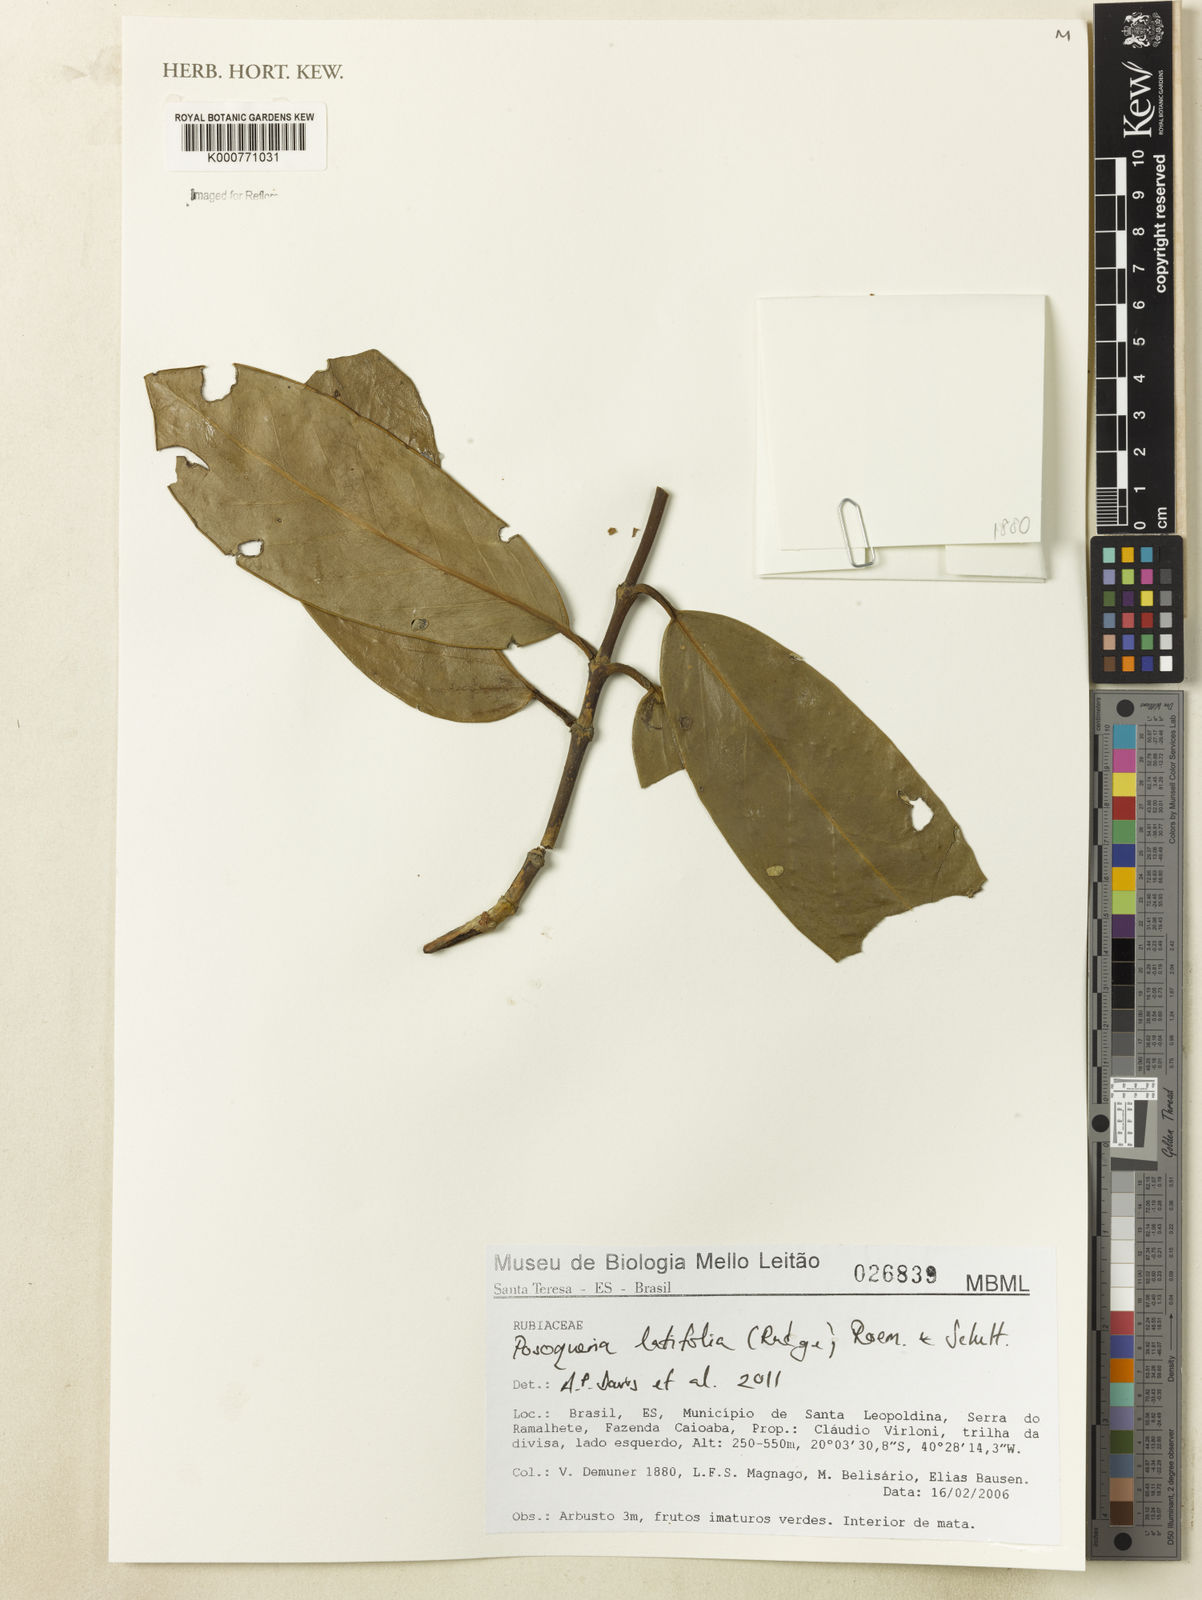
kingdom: Plantae
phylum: Tracheophyta
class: Magnoliopsida
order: Gentianales
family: Rubiaceae
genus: Posoqueria
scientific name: Posoqueria latifolia
